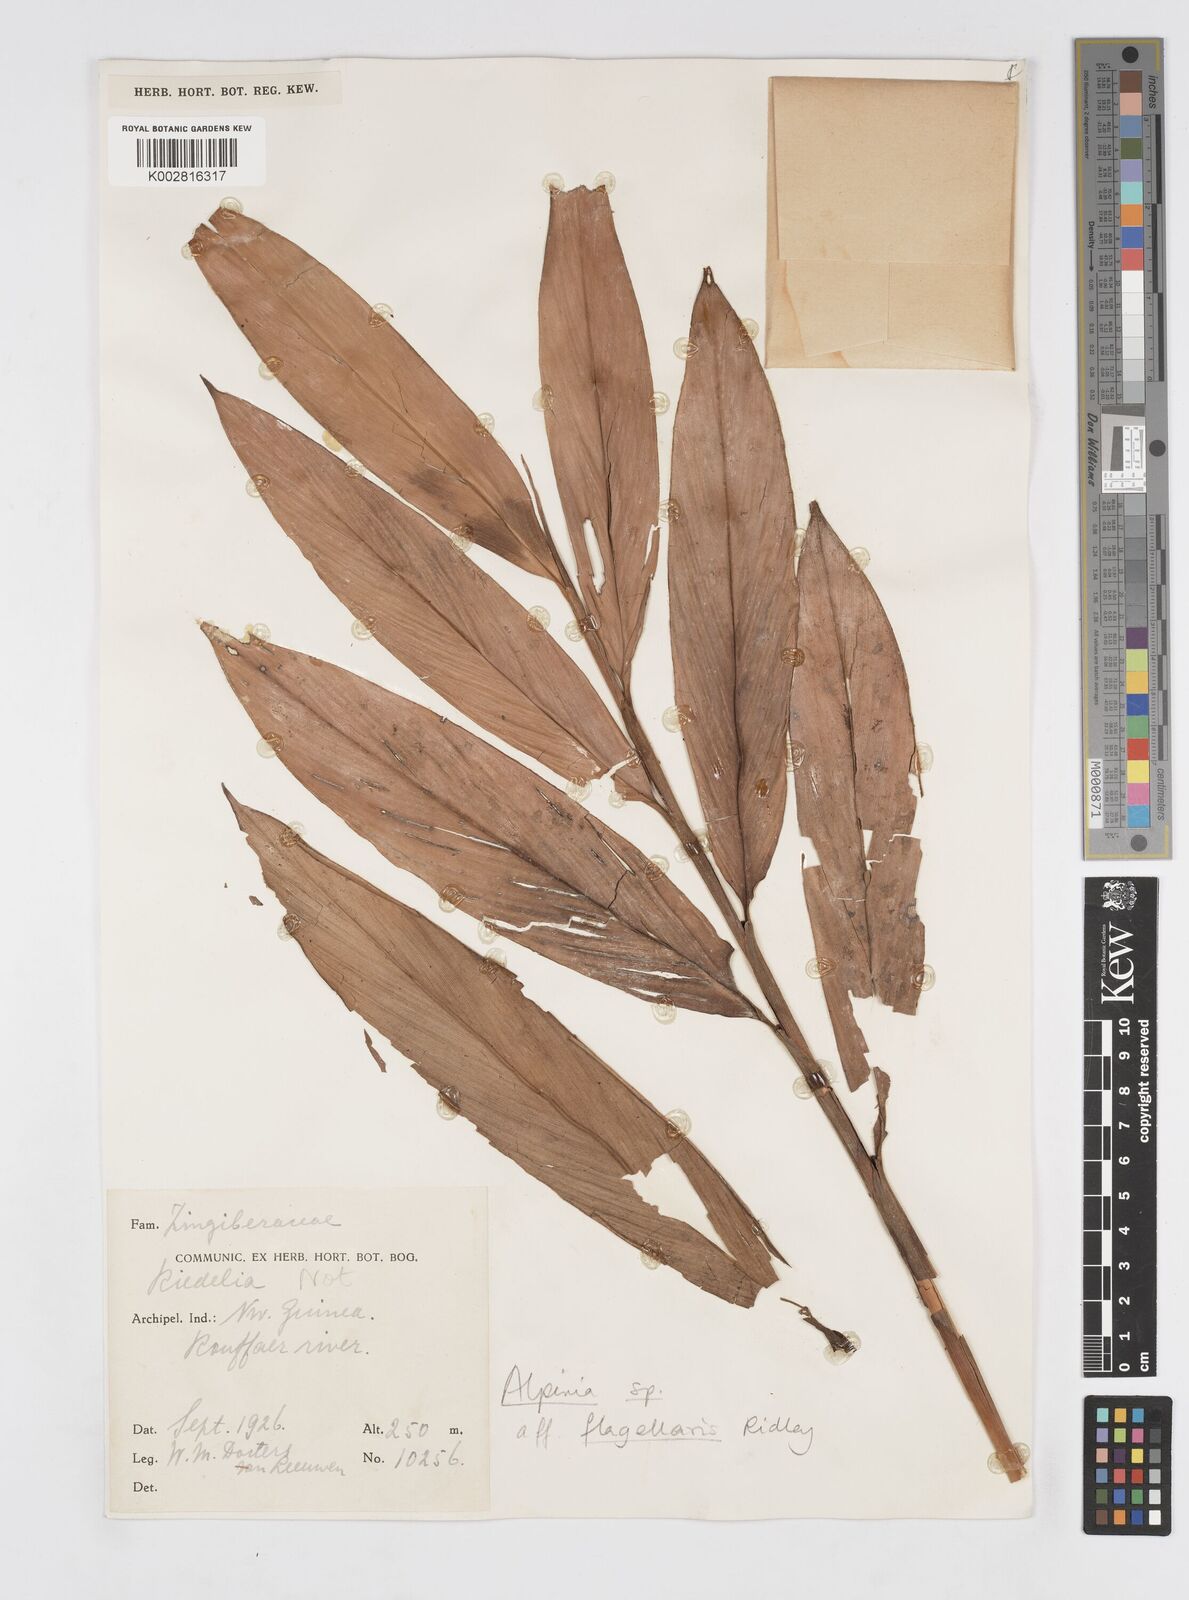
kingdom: Plantae
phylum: Tracheophyta
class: Liliopsida
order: Zingiberales
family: Zingiberaceae
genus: Alpinia
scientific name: Alpinia flagellaris
